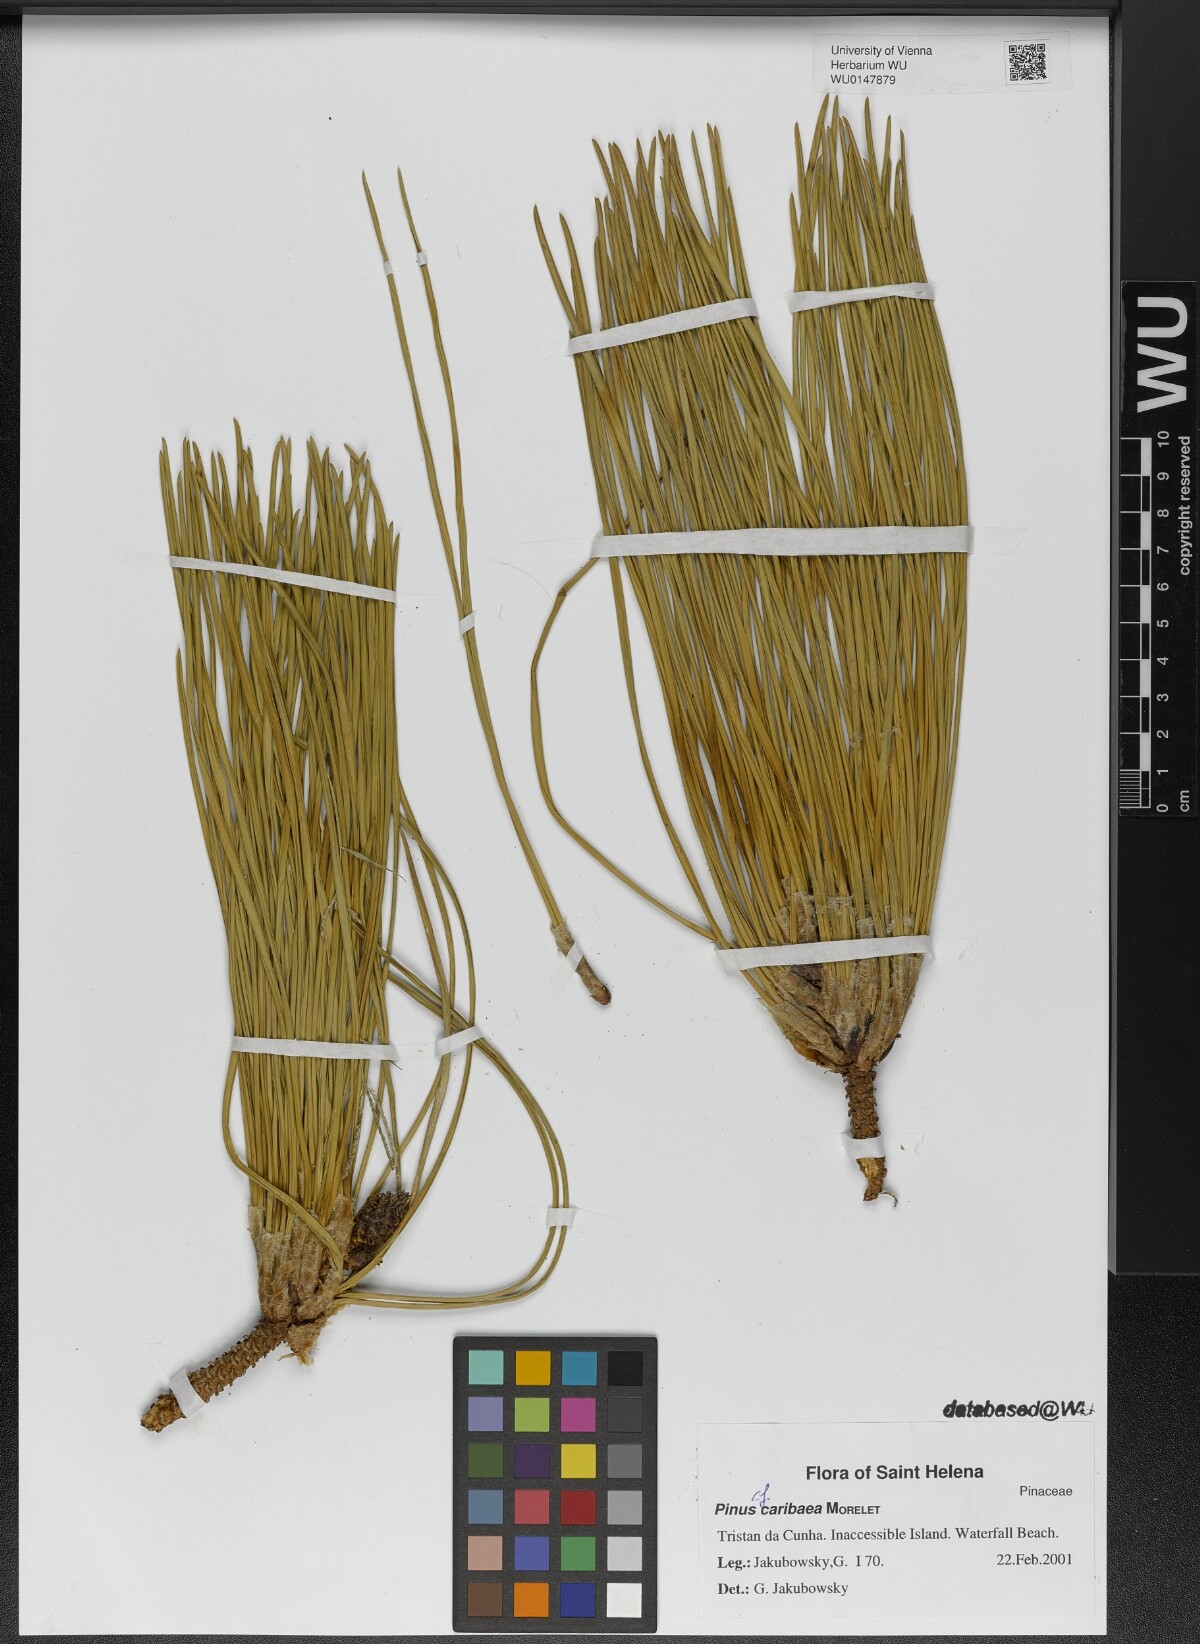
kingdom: Plantae
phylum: Tracheophyta
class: Pinopsida
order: Pinales
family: Pinaceae
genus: Pinus
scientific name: Pinus caribaea
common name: Caribbean pine
